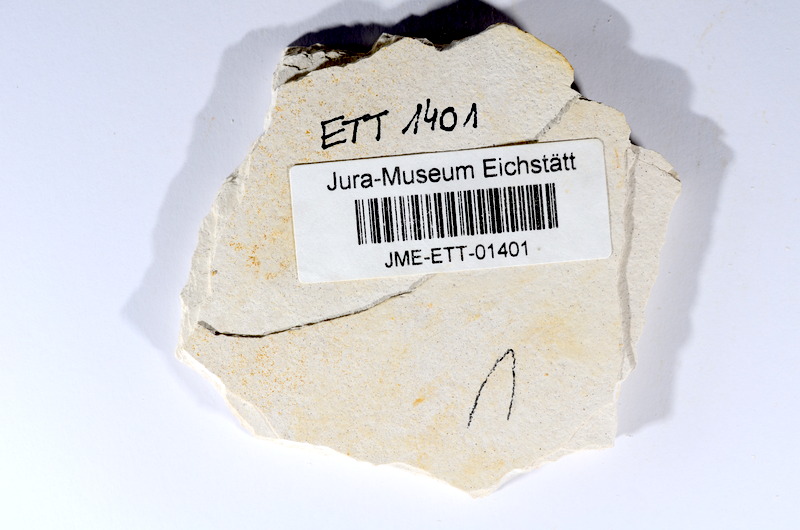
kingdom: Animalia
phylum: Chordata
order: Salmoniformes
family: Orthogonikleithridae
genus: Orthogonikleithrus
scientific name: Orthogonikleithrus hoelli
